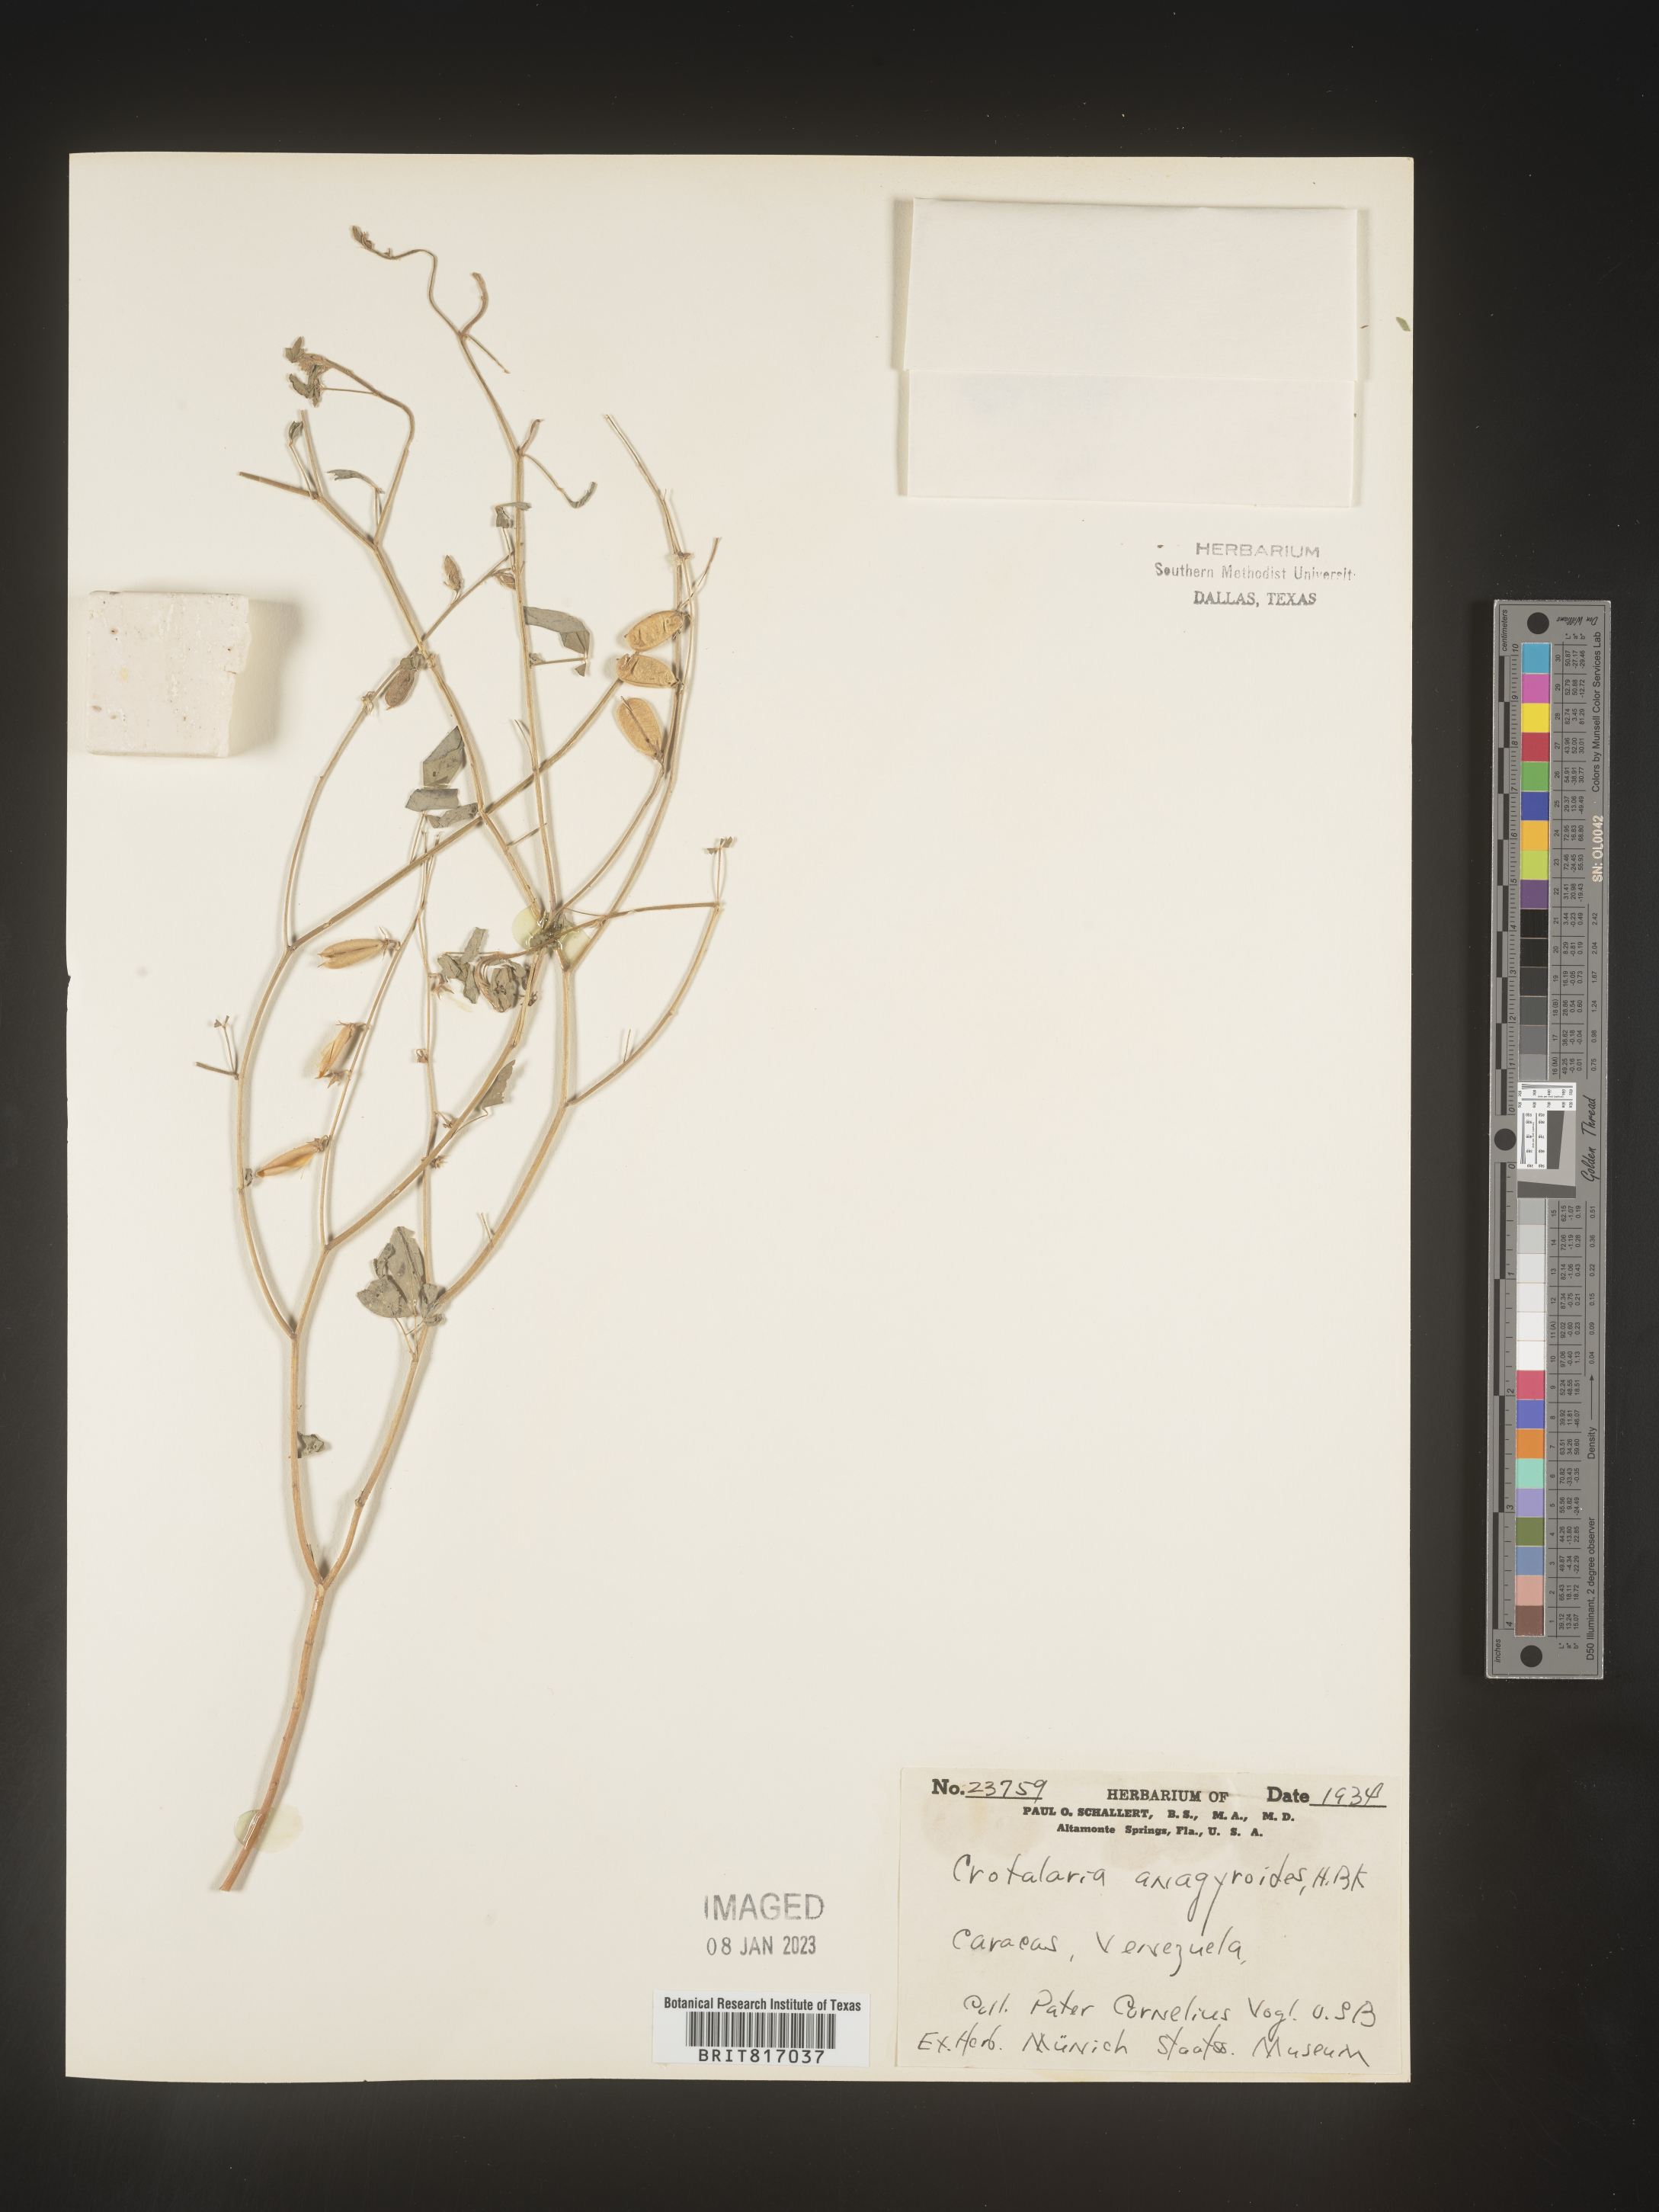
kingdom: Plantae
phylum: Tracheophyta
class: Magnoliopsida
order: Fabales
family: Fabaceae
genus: Crotalaria
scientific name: Crotalaria
